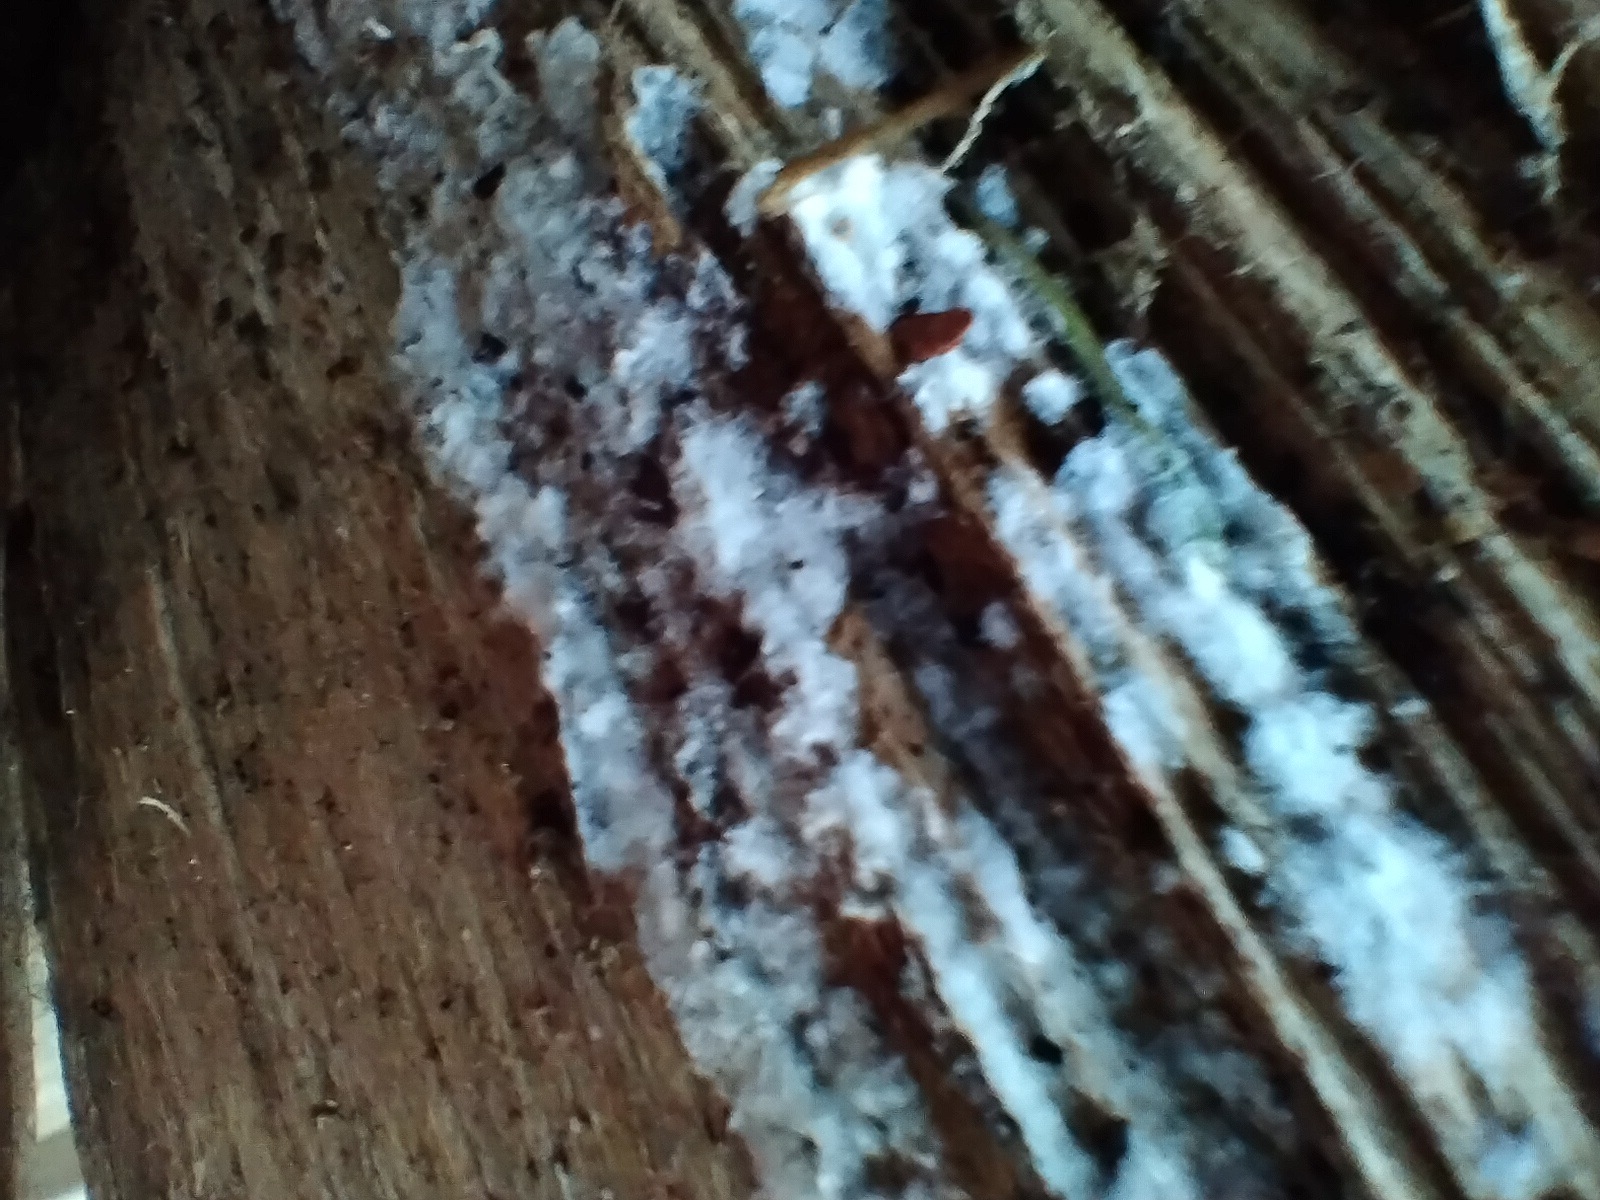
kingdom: Fungi
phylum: Basidiomycota
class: Agaricomycetes
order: Corticiales
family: Corticiaceae
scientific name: Corticiaceae
